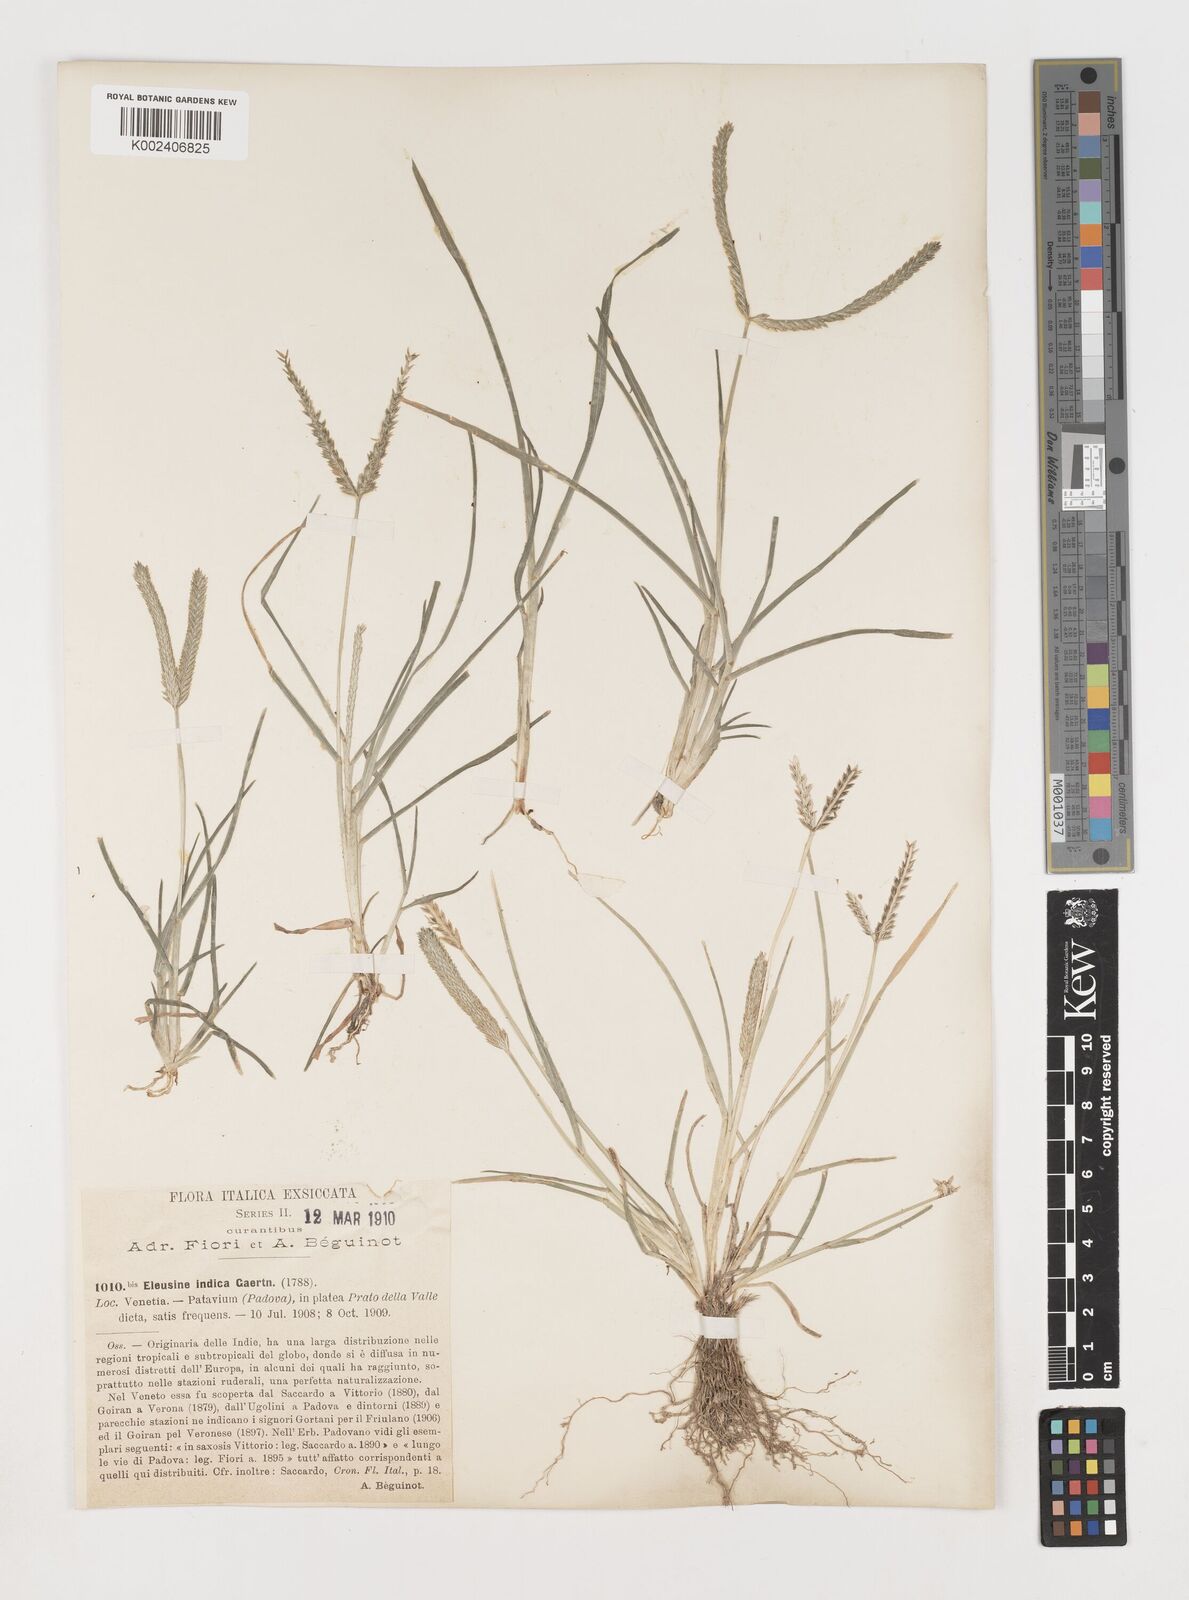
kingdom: Plantae
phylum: Tracheophyta
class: Liliopsida
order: Poales
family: Poaceae
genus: Eleusine
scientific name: Eleusine indica
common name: Yard-grass
